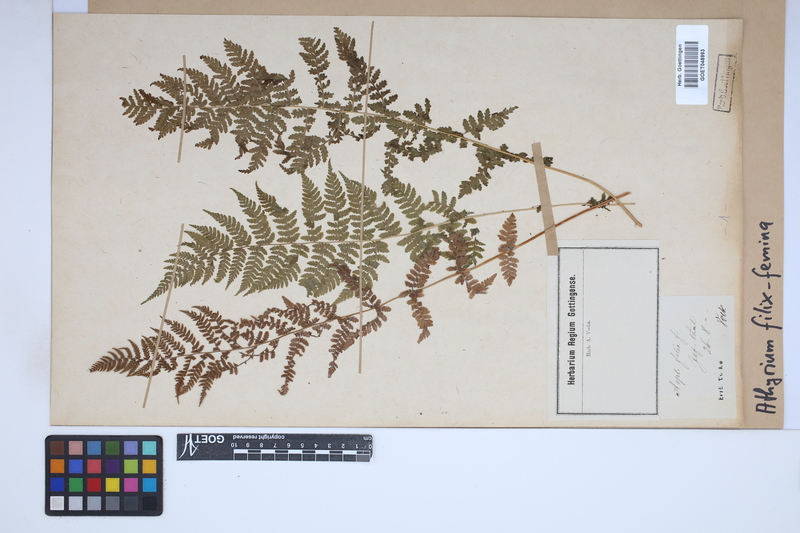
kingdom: Plantae
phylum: Tracheophyta
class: Polypodiopsida
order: Polypodiales
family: Athyriaceae
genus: Athyrium
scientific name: Athyrium filix-femina
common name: Lady fern
